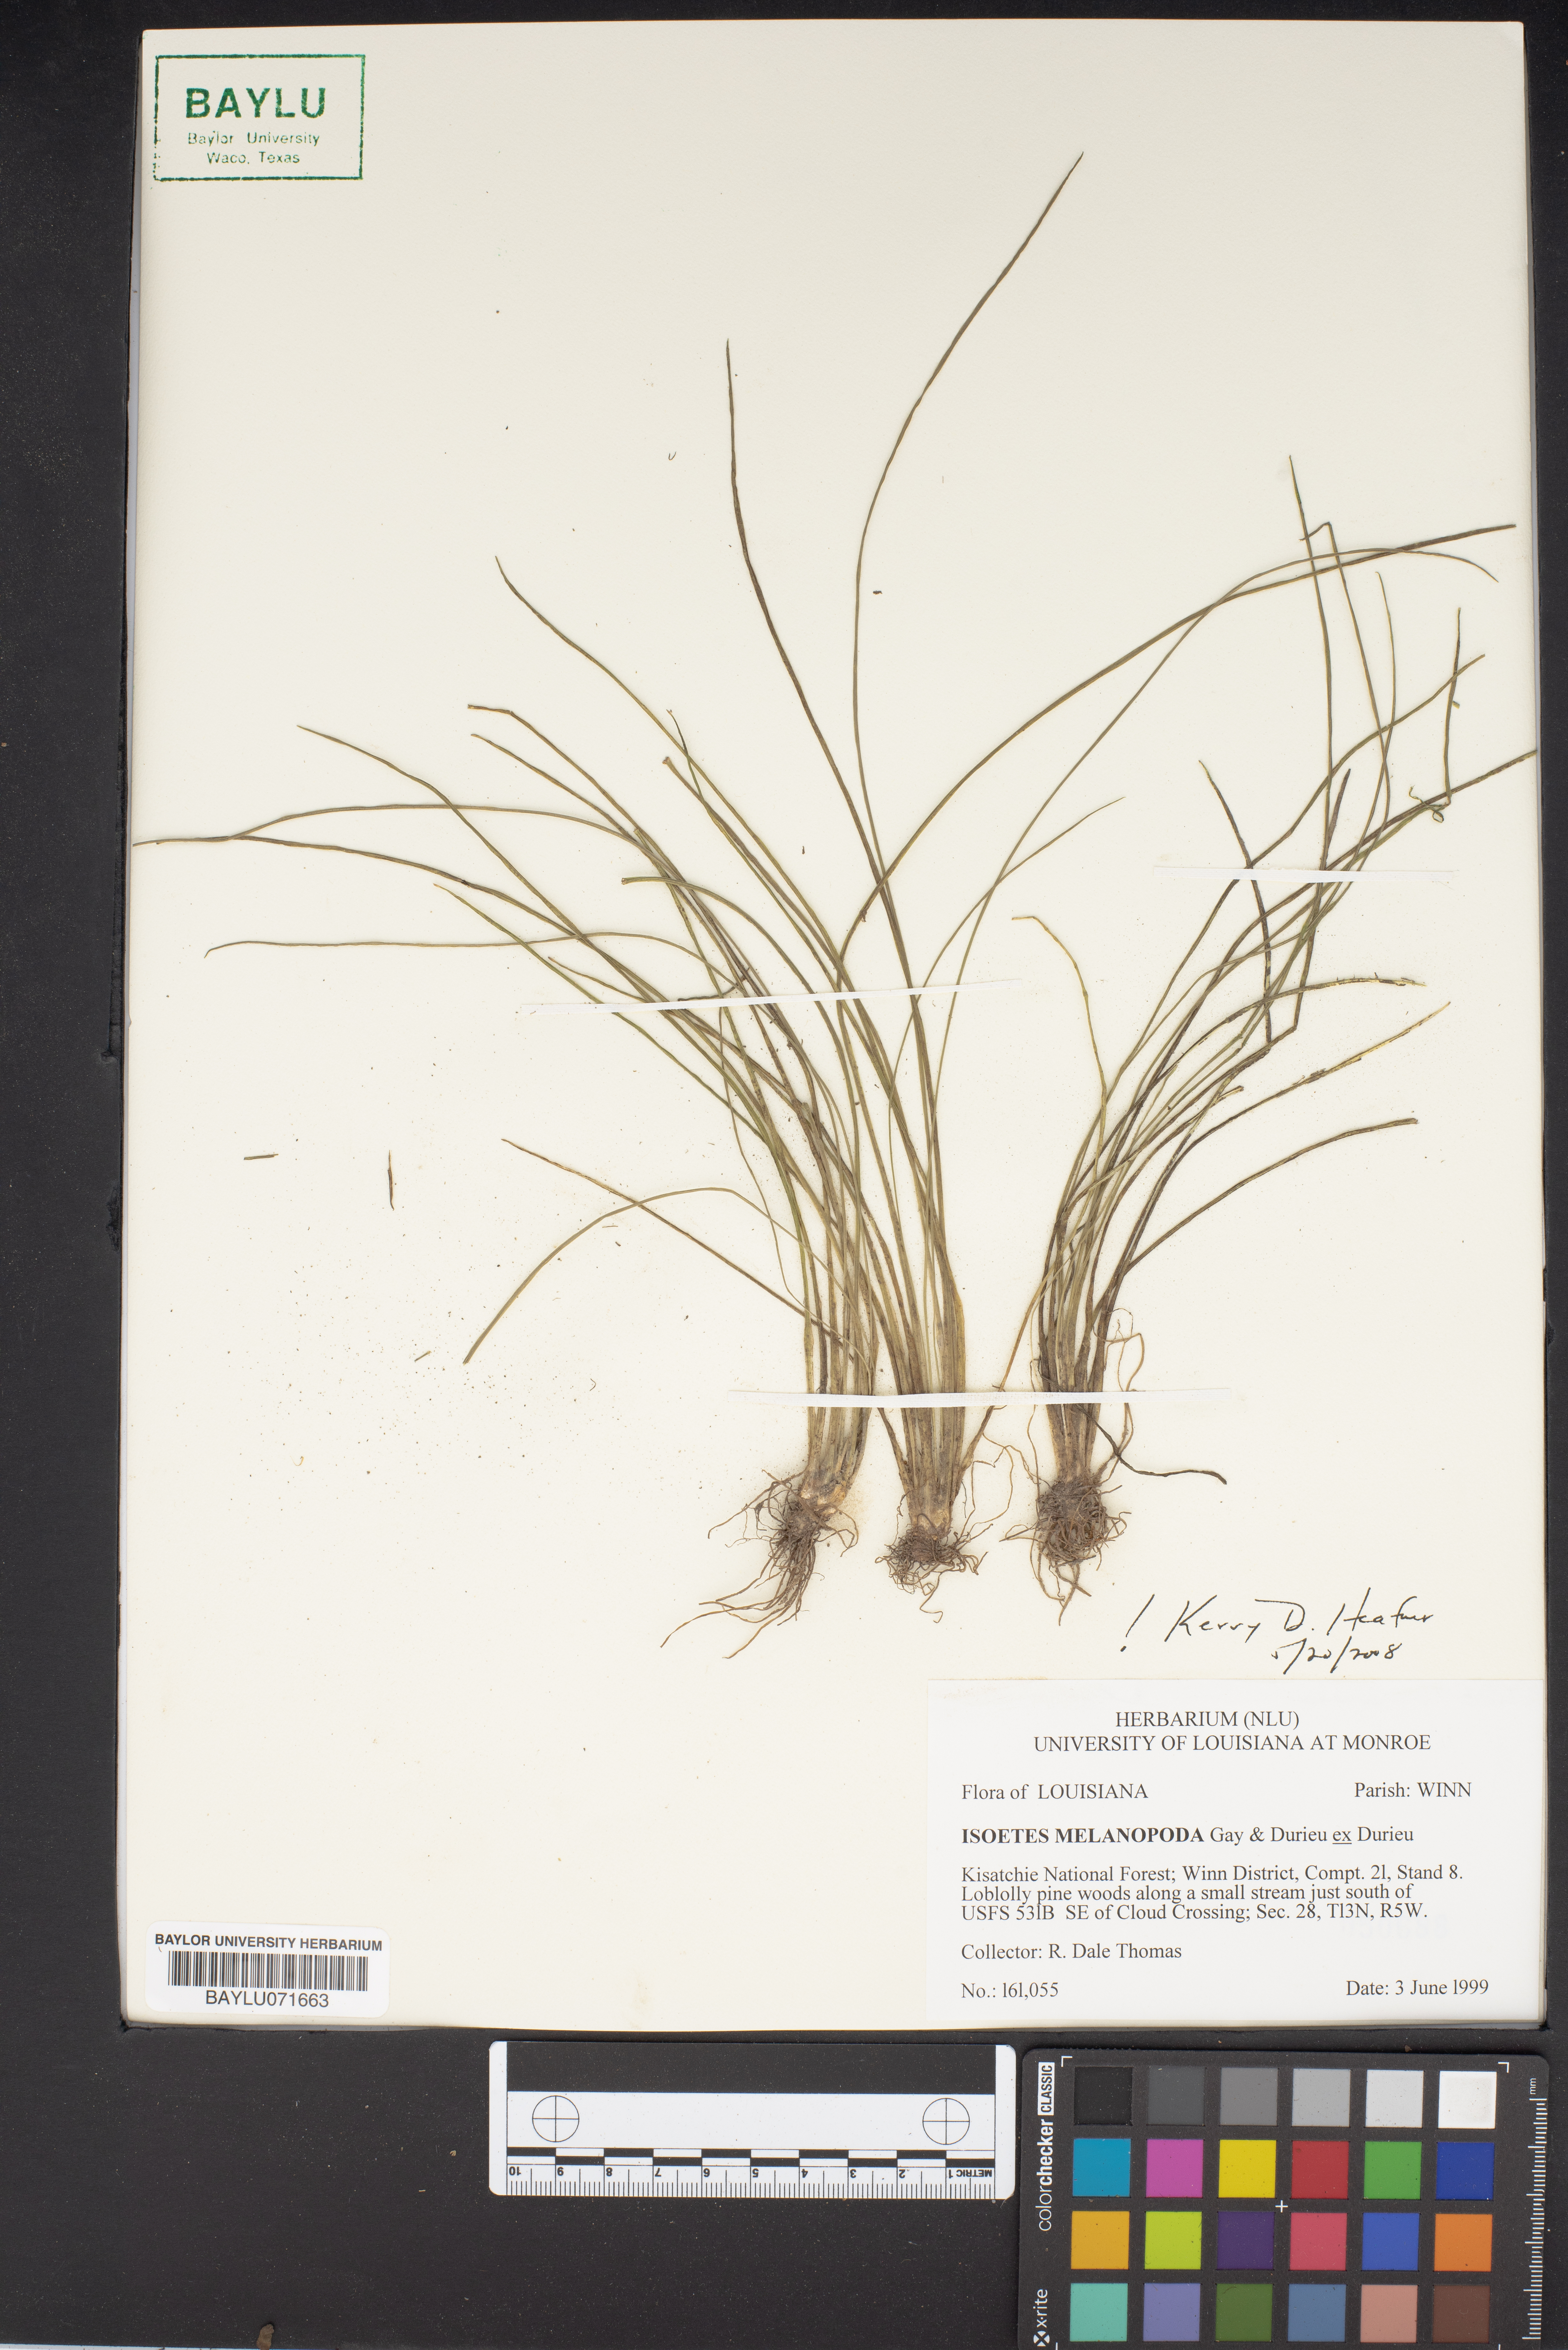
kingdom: Plantae
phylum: Tracheophyta
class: Lycopodiopsida
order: Isoetales
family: Isoetaceae
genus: Isoetes
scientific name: Isoetes melanopoda
